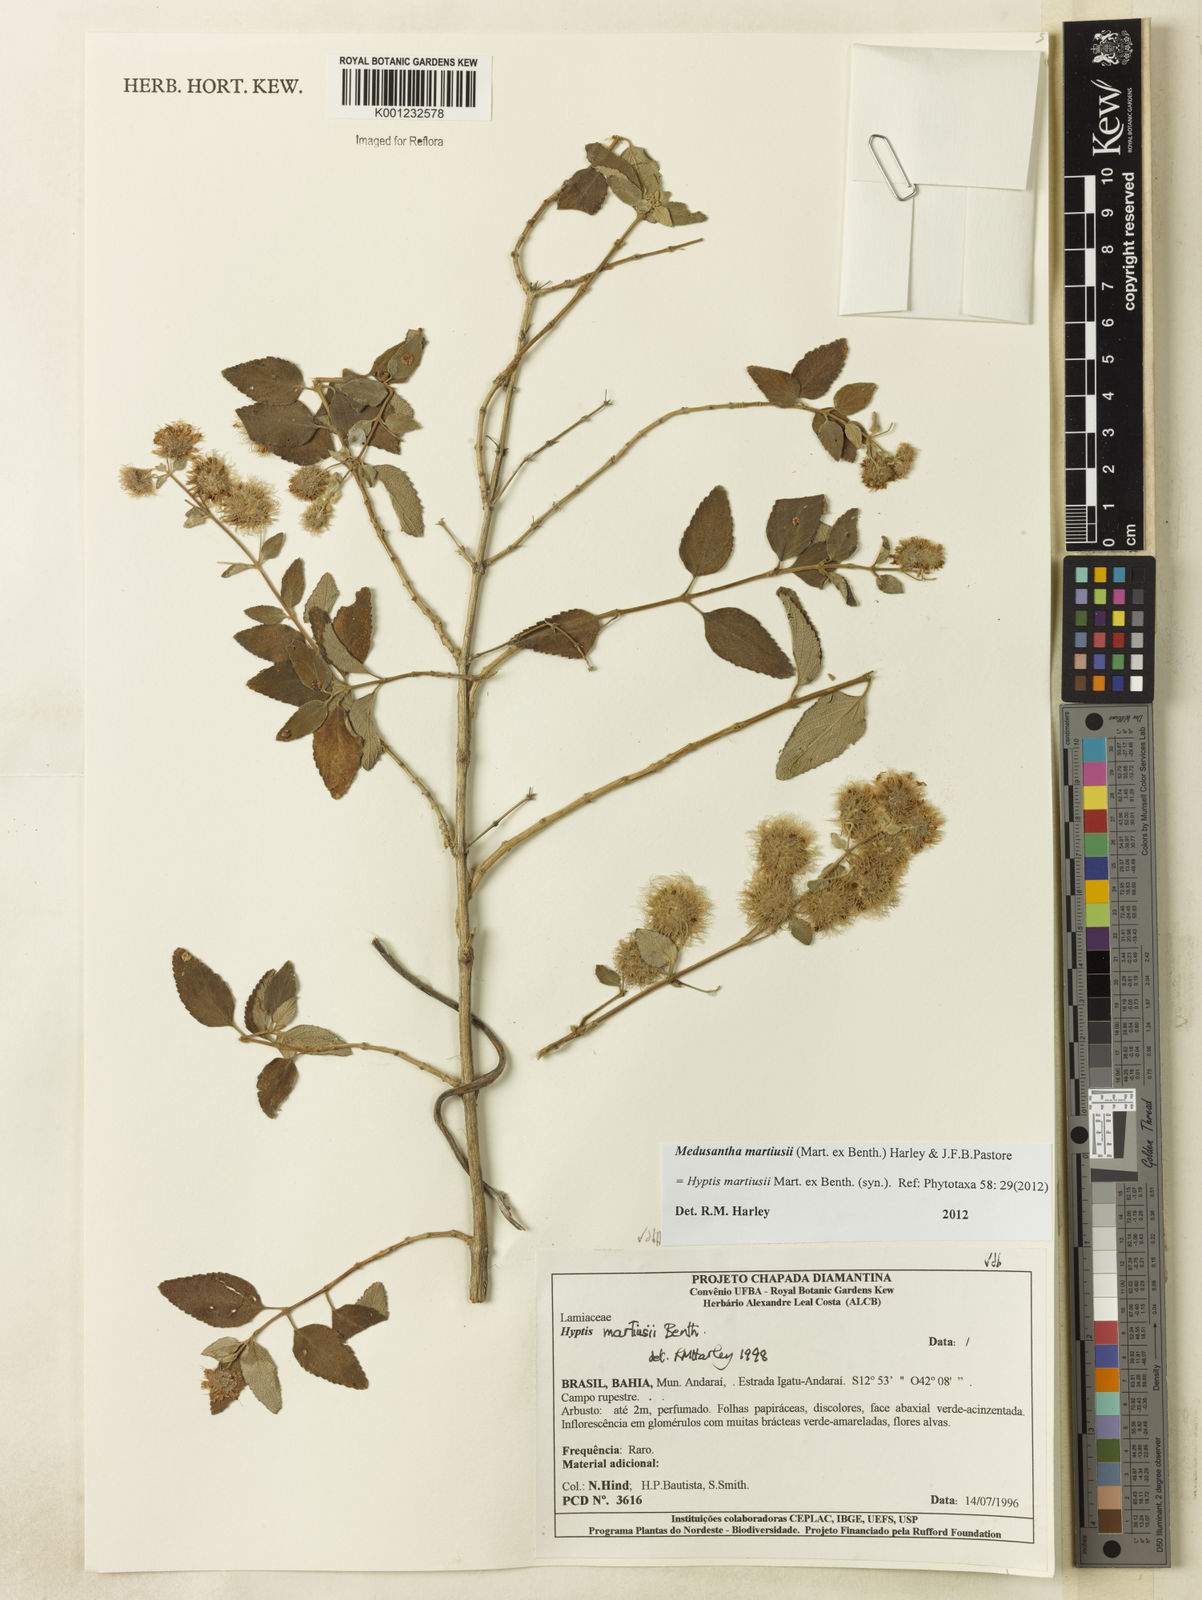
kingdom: Plantae
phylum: Tracheophyta
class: Magnoliopsida
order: Lamiales
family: Lamiaceae
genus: Medusantha
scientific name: Medusantha martiusii
